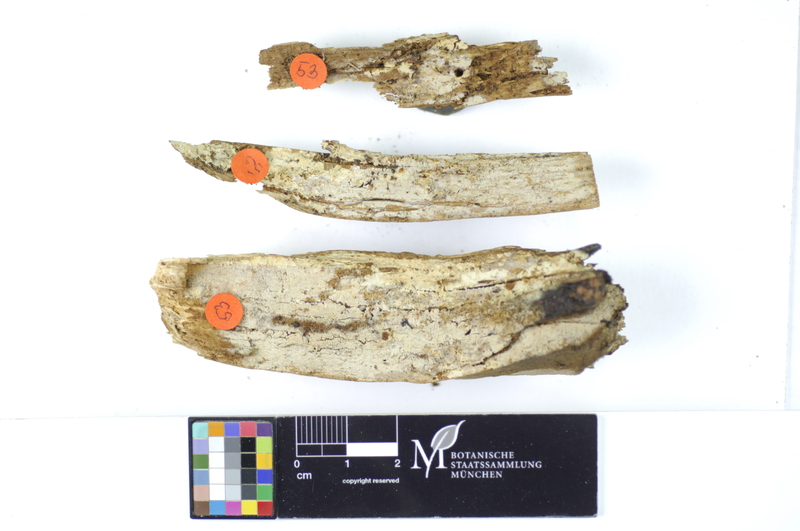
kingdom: Plantae
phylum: Tracheophyta
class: Pinopsida
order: Pinales
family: Pinaceae
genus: Pinus
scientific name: Pinus
